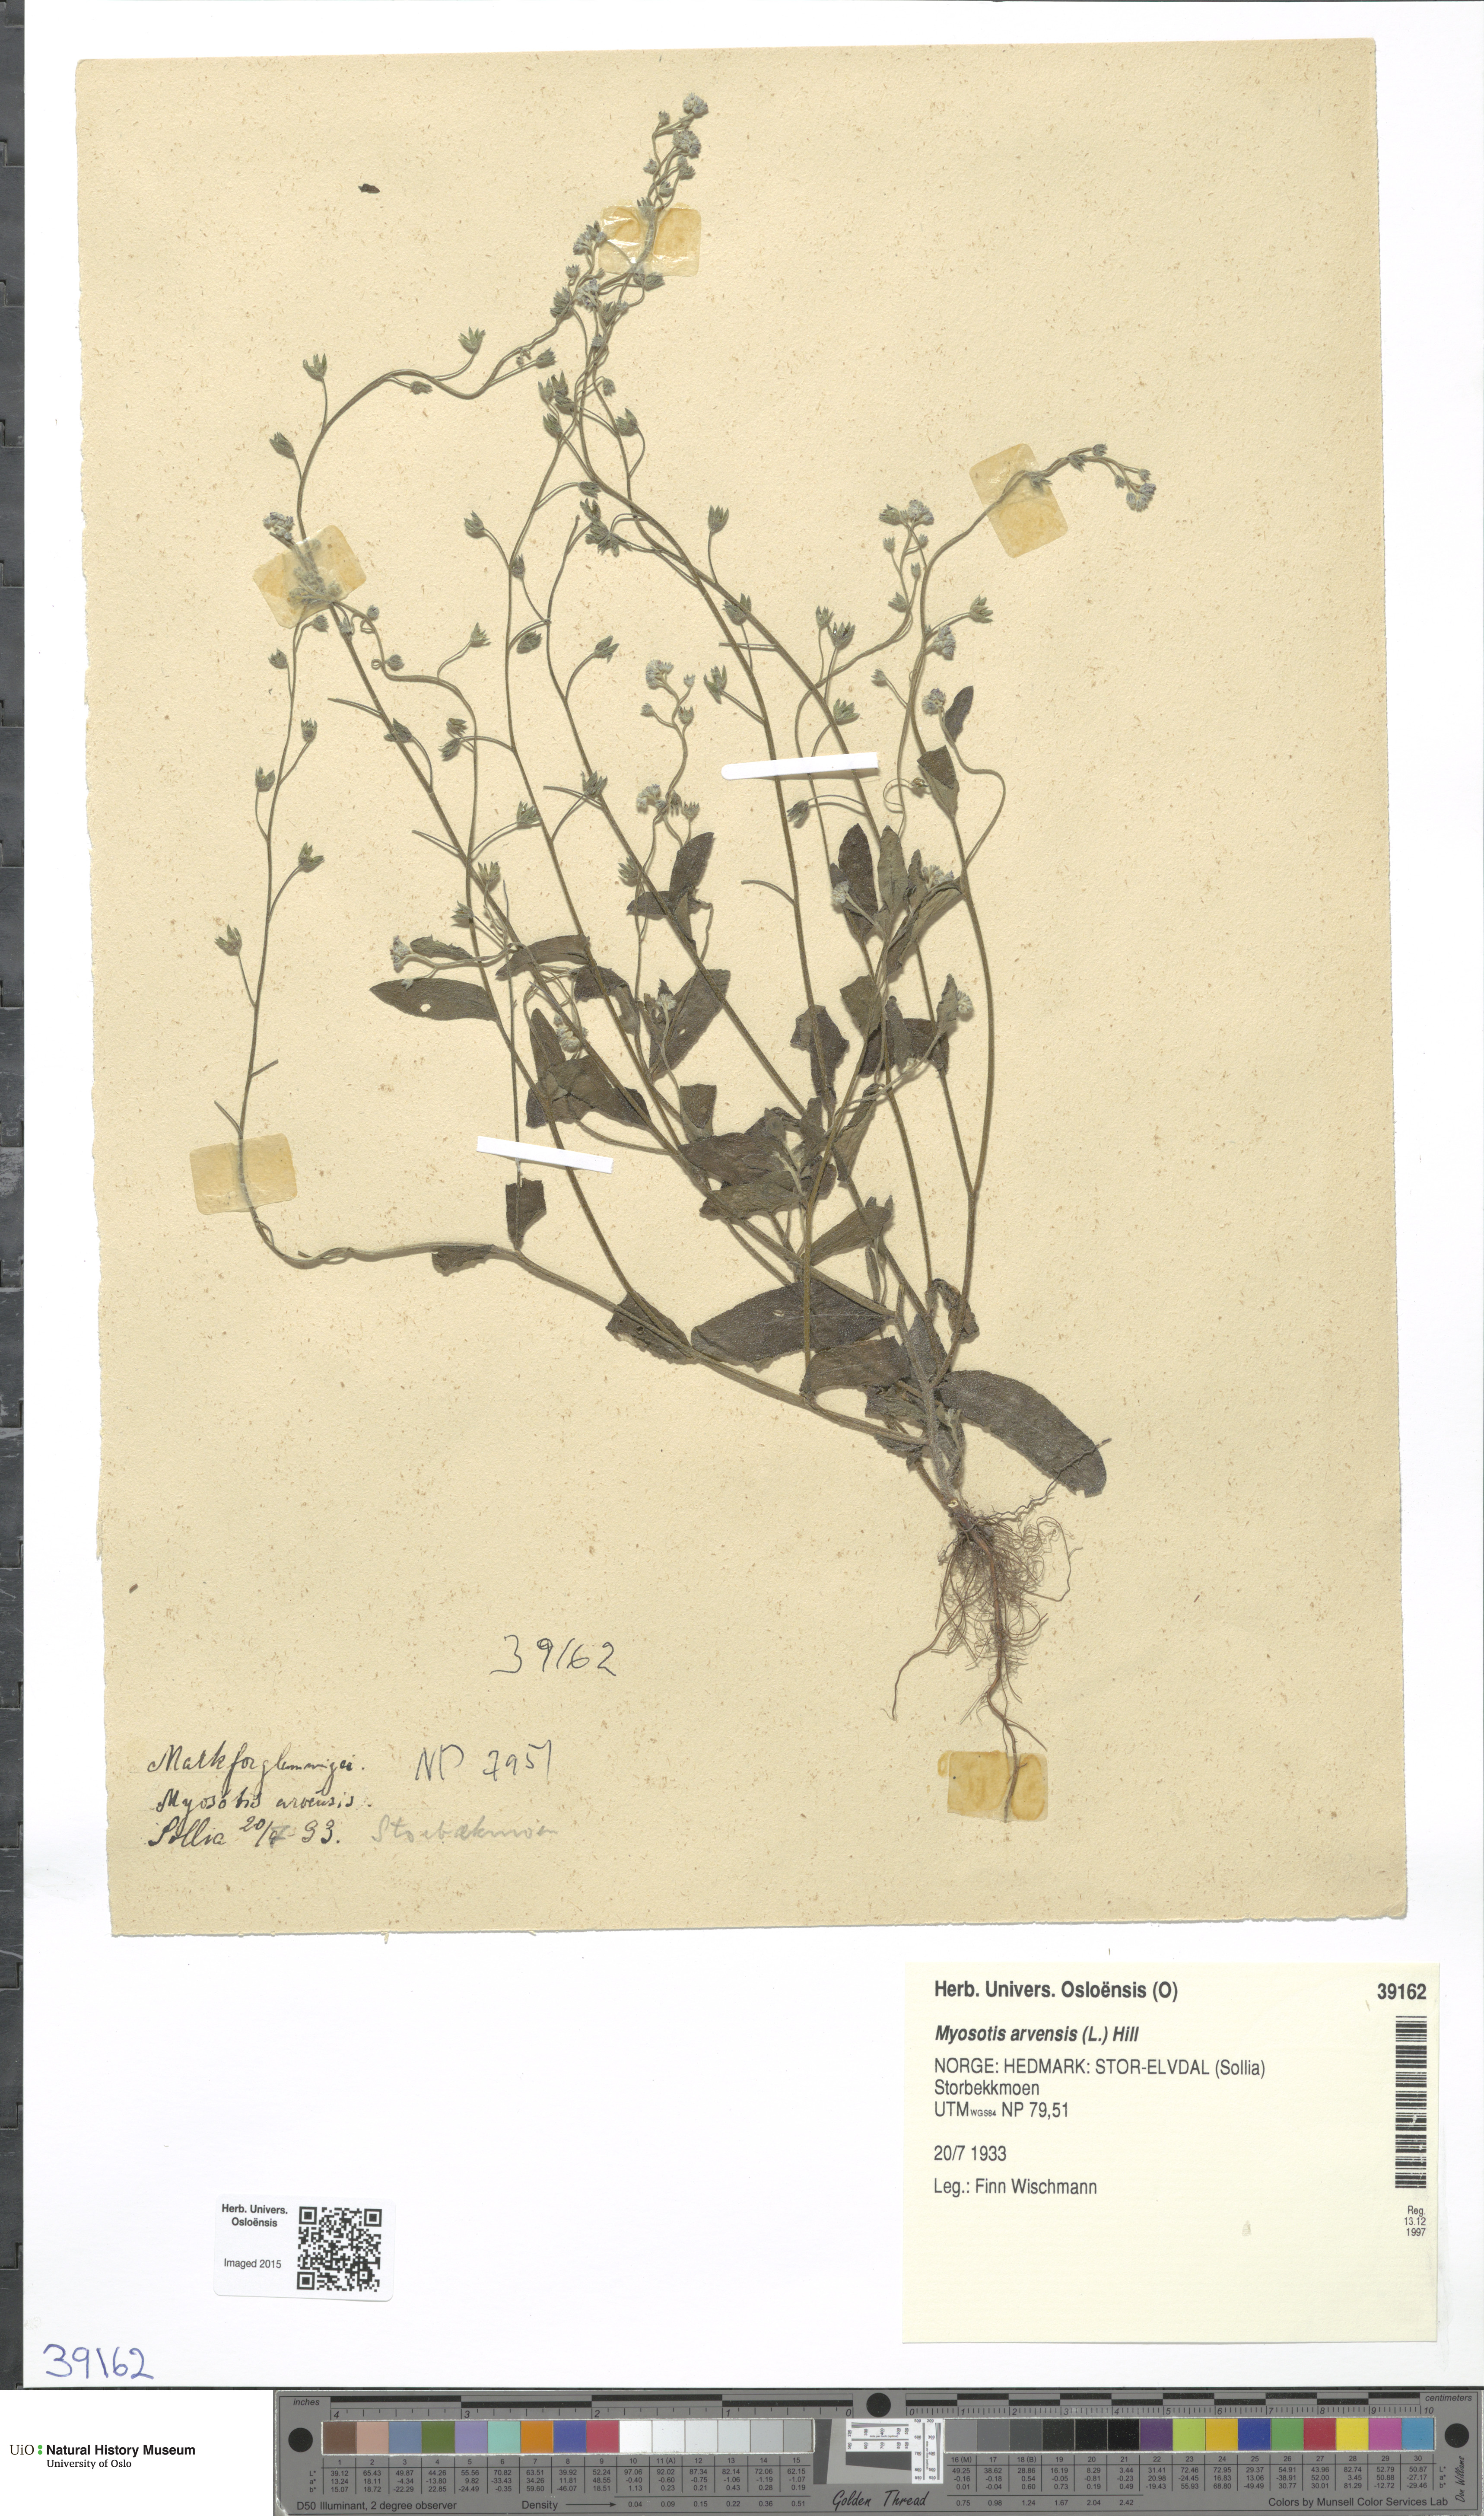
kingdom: Plantae
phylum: Tracheophyta
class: Magnoliopsida
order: Boraginales
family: Boraginaceae
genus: Myosotis
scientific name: Myosotis arvensis
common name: Field forget-me-not
